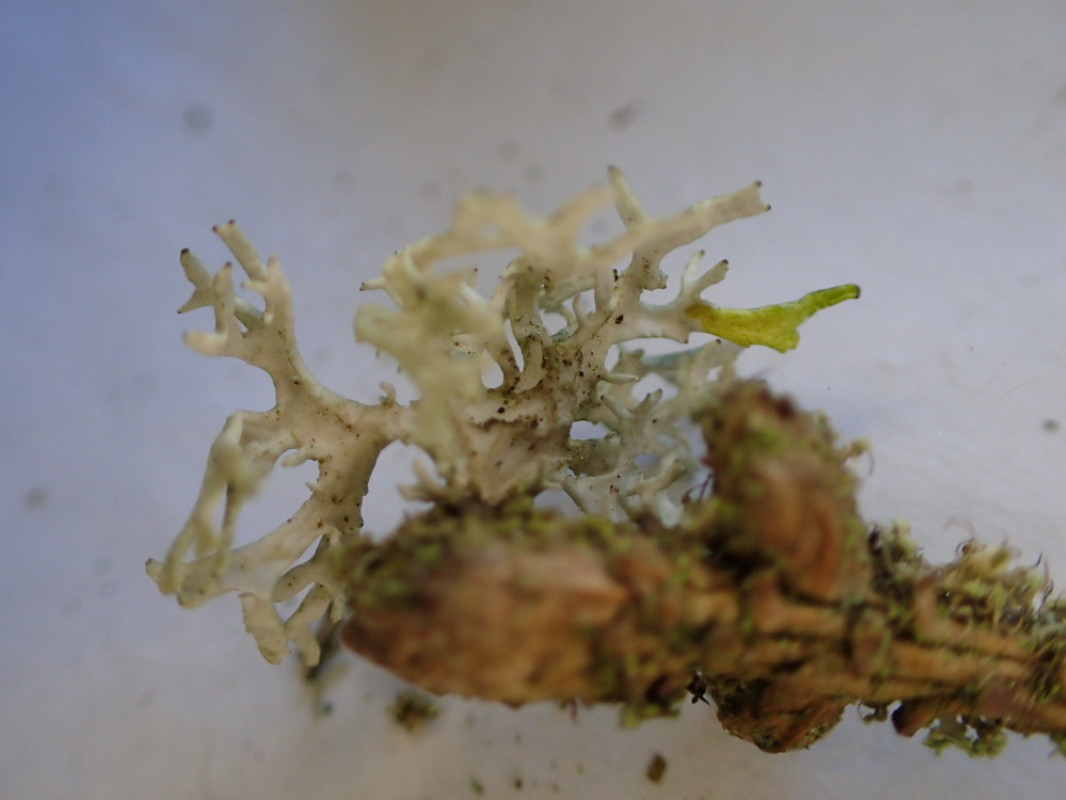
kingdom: Fungi
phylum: Ascomycota
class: Lecanoromycetes
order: Lecanorales
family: Parmeliaceae
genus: Evernia
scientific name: Evernia prunastri
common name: almindelig slåenlav
